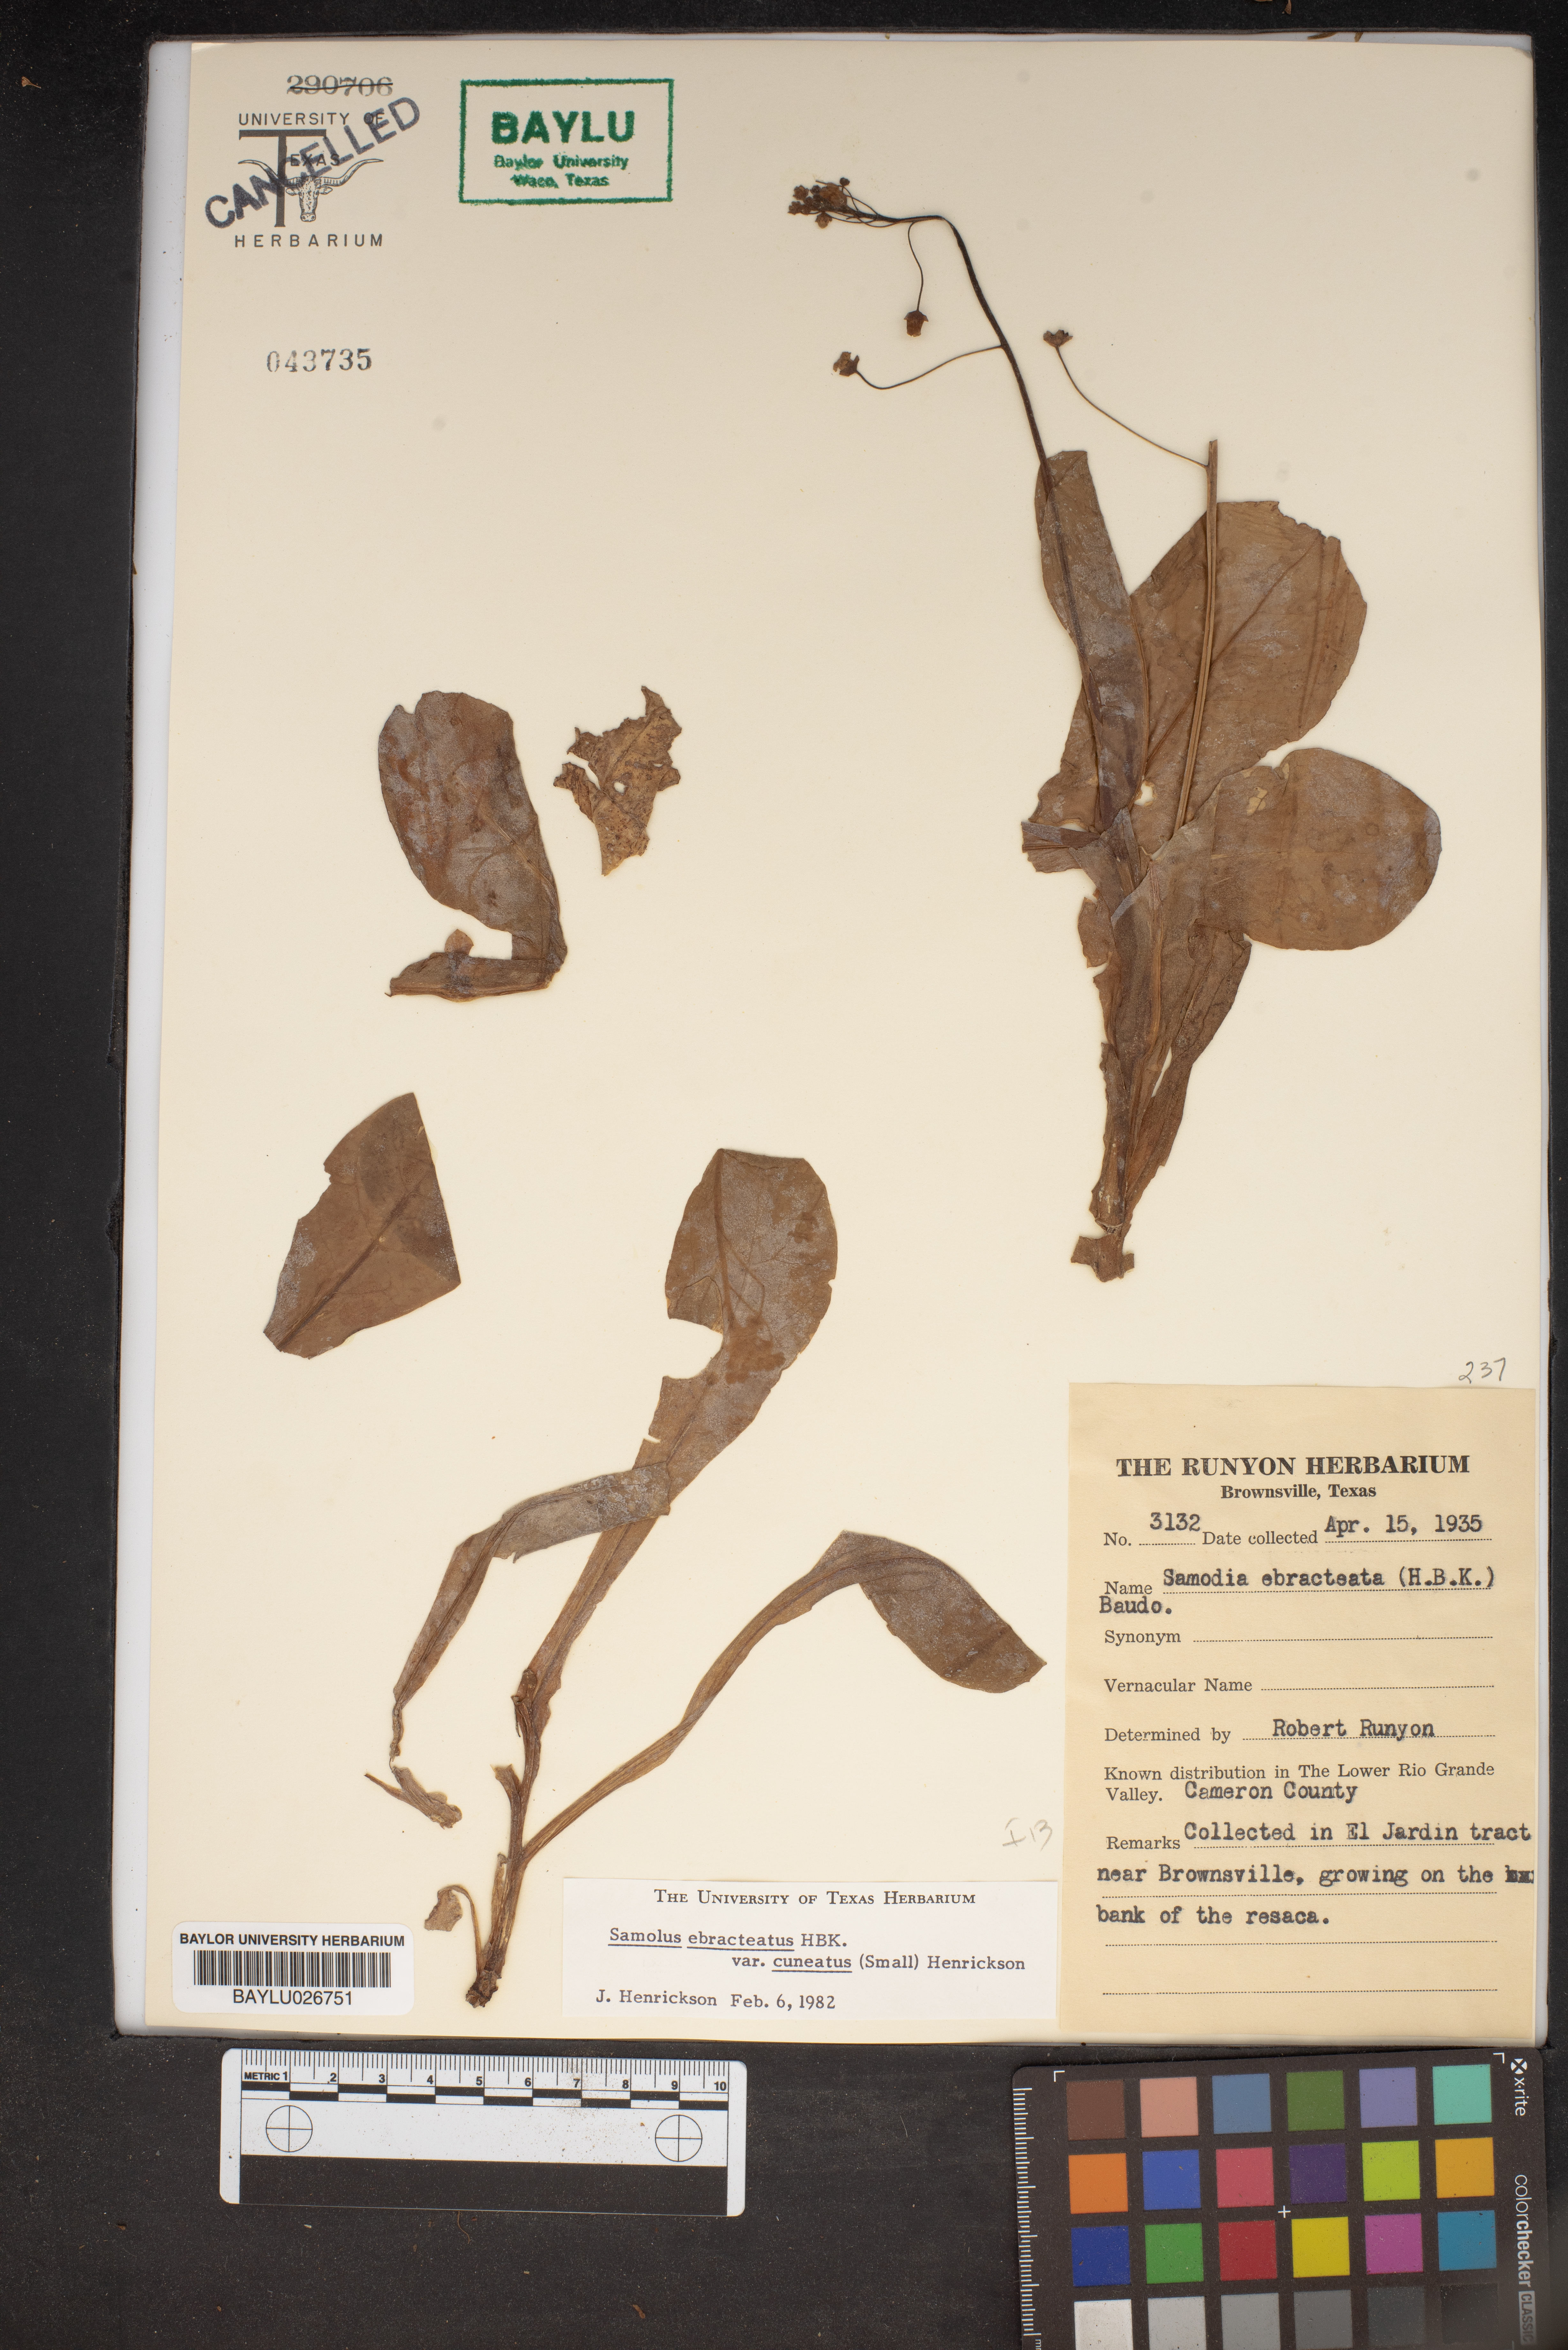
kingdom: Plantae
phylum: Tracheophyta
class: Magnoliopsida
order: Ericales
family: Primulaceae
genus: Samolus
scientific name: Samolus ebracteatus
